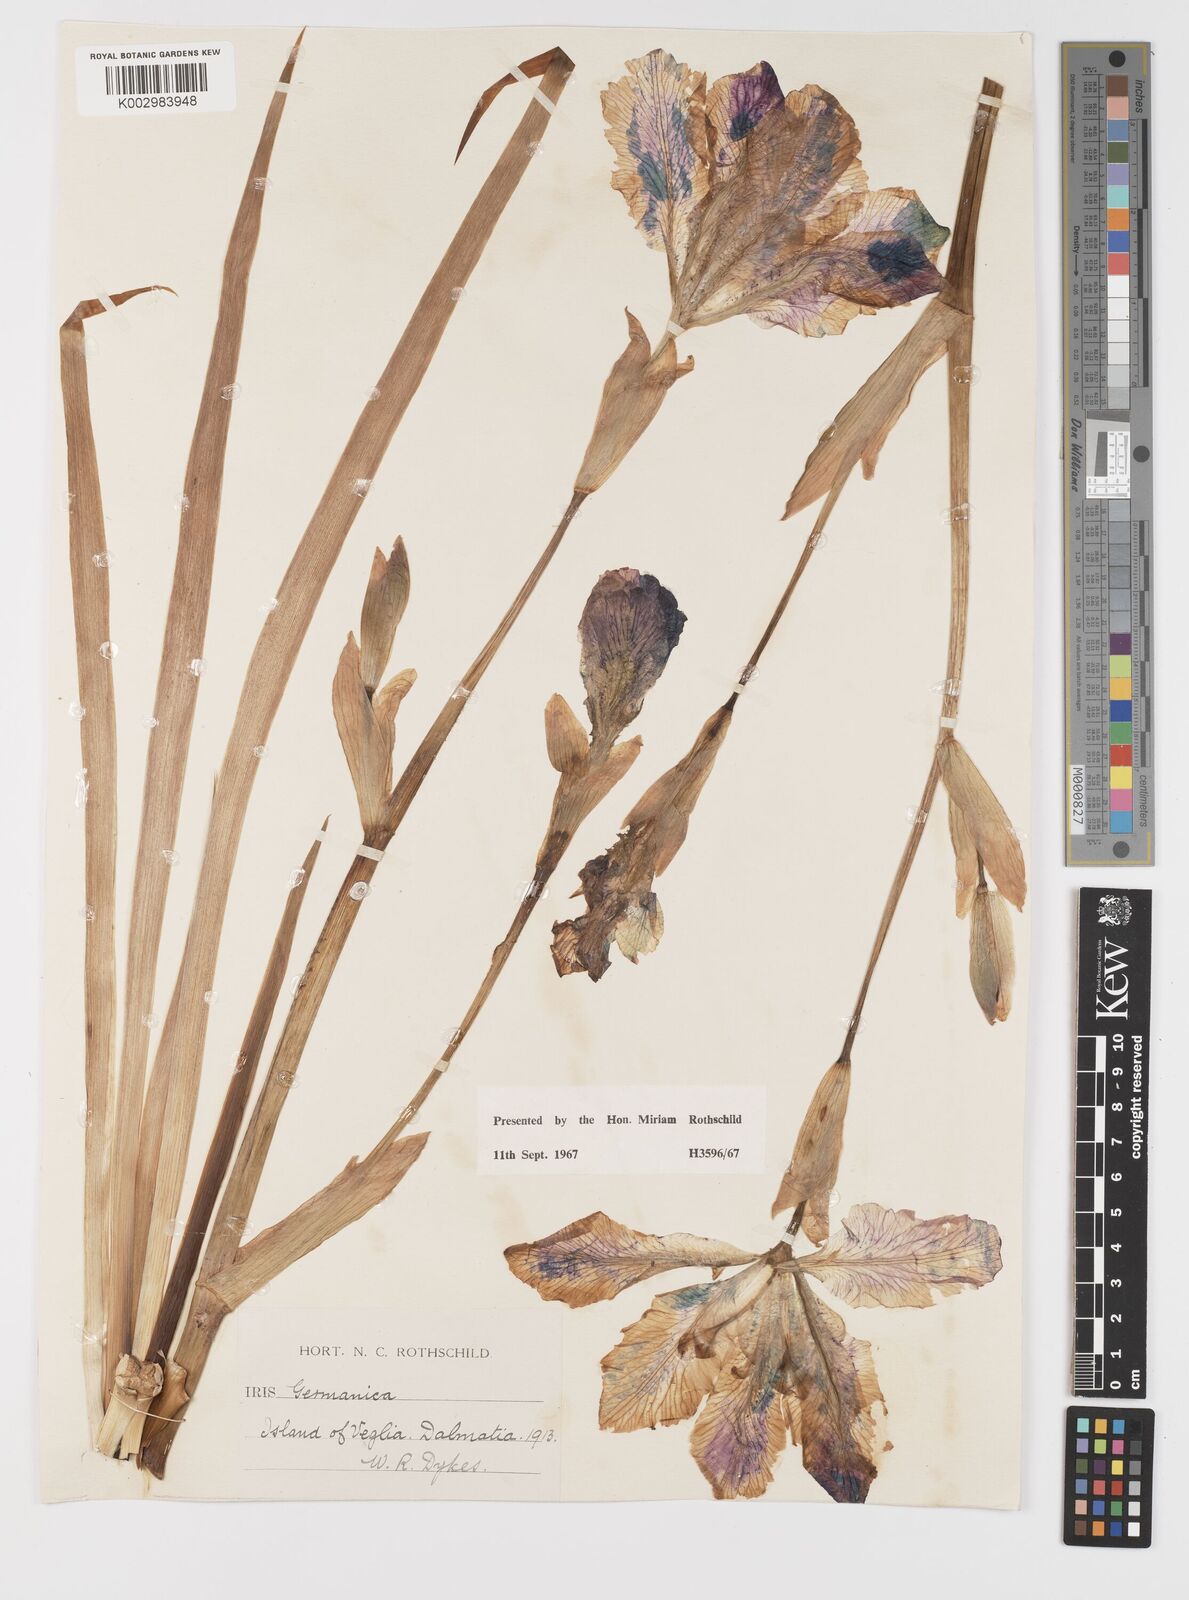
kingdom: Plantae
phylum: Tracheophyta
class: Liliopsida
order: Asparagales
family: Iridaceae
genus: Iris
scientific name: Iris germanica
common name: German iris
